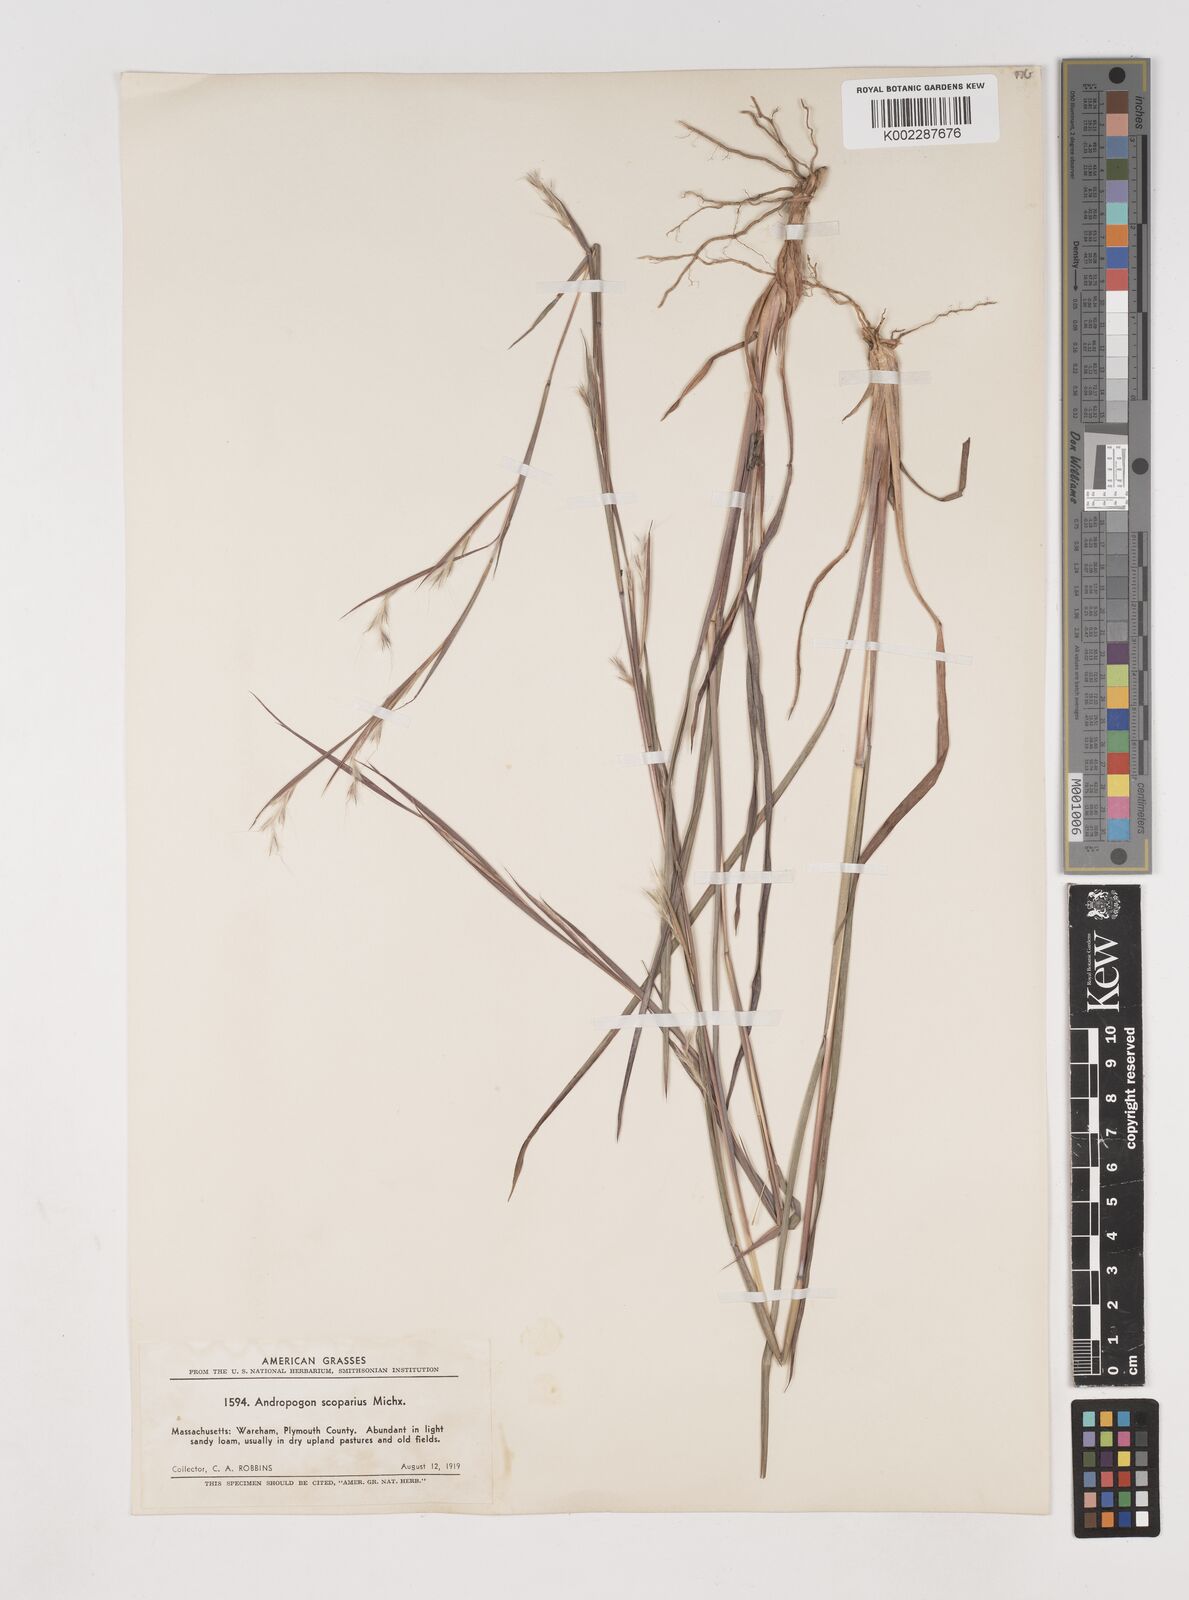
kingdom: Plantae
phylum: Tracheophyta
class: Liliopsida
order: Poales
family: Poaceae
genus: Schizachyrium
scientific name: Schizachyrium scoparium
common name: Little bluestem
